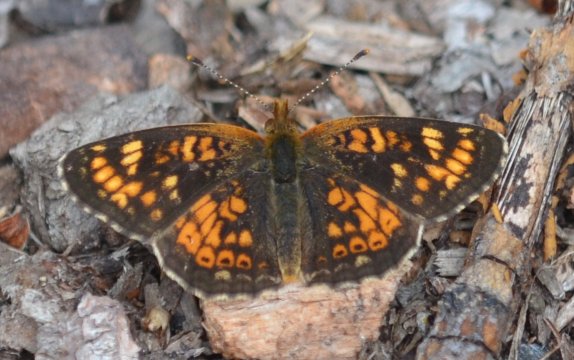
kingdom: Animalia
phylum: Arthropoda
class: Insecta
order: Lepidoptera
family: Nymphalidae
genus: Phyciodes
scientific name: Phyciodes tharos
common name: Field Crescent
